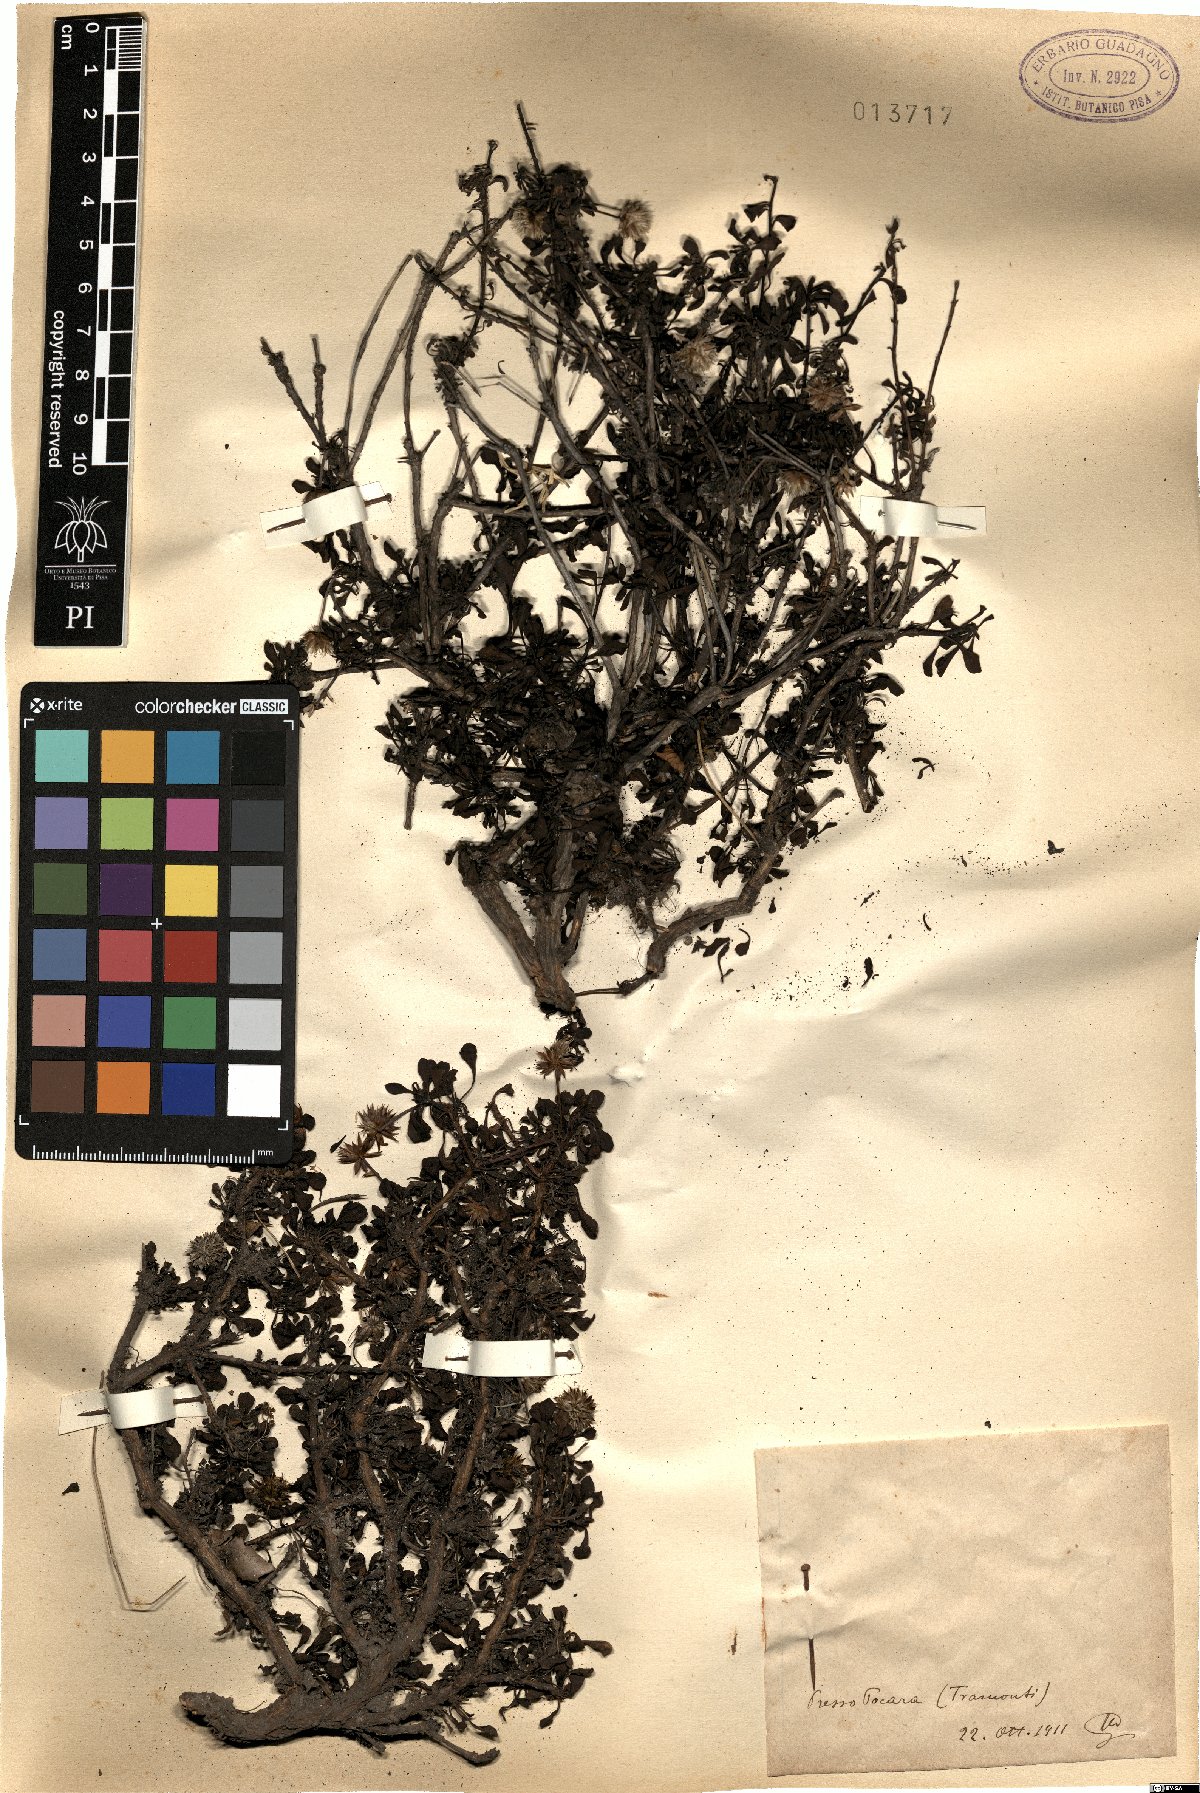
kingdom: Plantae
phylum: Tracheophyta
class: Magnoliopsida
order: Lamiales
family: Plantaginaceae
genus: Globularia
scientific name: Globularia
